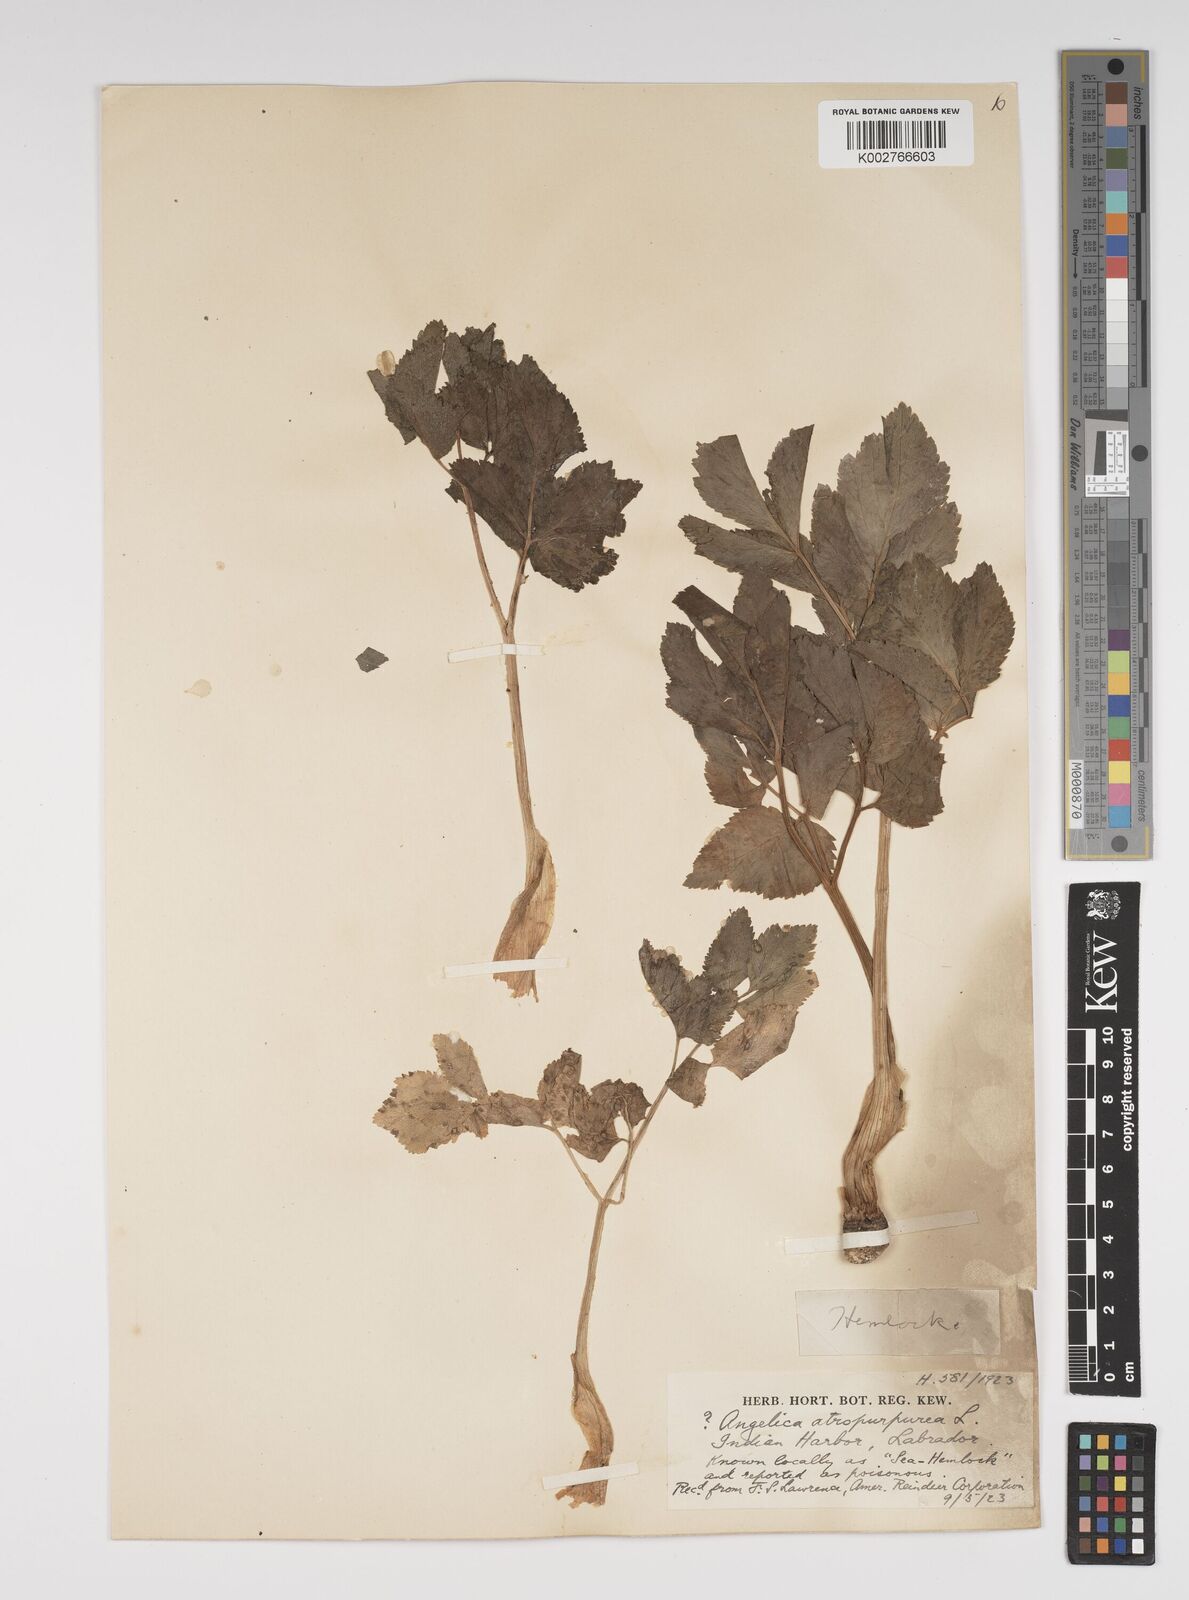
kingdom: Plantae
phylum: Tracheophyta
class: Magnoliopsida
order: Apiales
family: Apiaceae
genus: Angelica
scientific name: Angelica atropurpurea
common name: Great angelica
